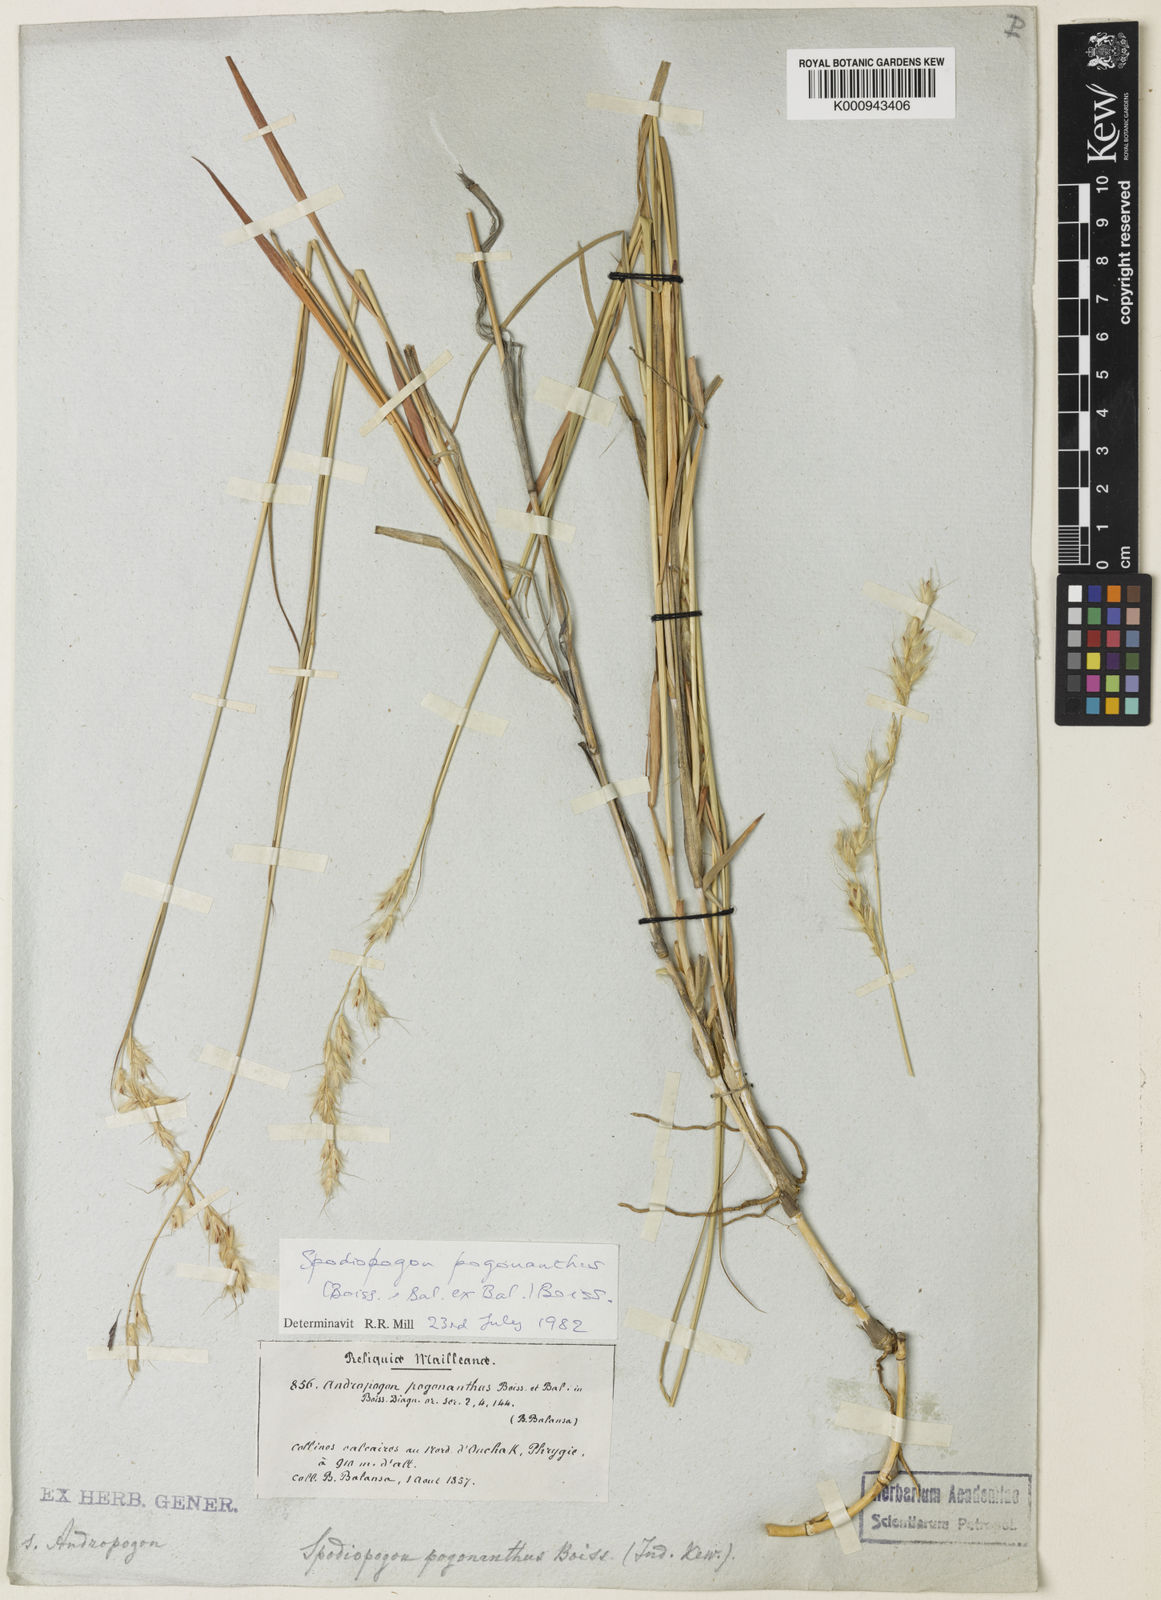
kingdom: Plantae
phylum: Tracheophyta
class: Liliopsida
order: Poales
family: Poaceae
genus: Spodiopogon
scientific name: Spodiopogon pogonanthus
